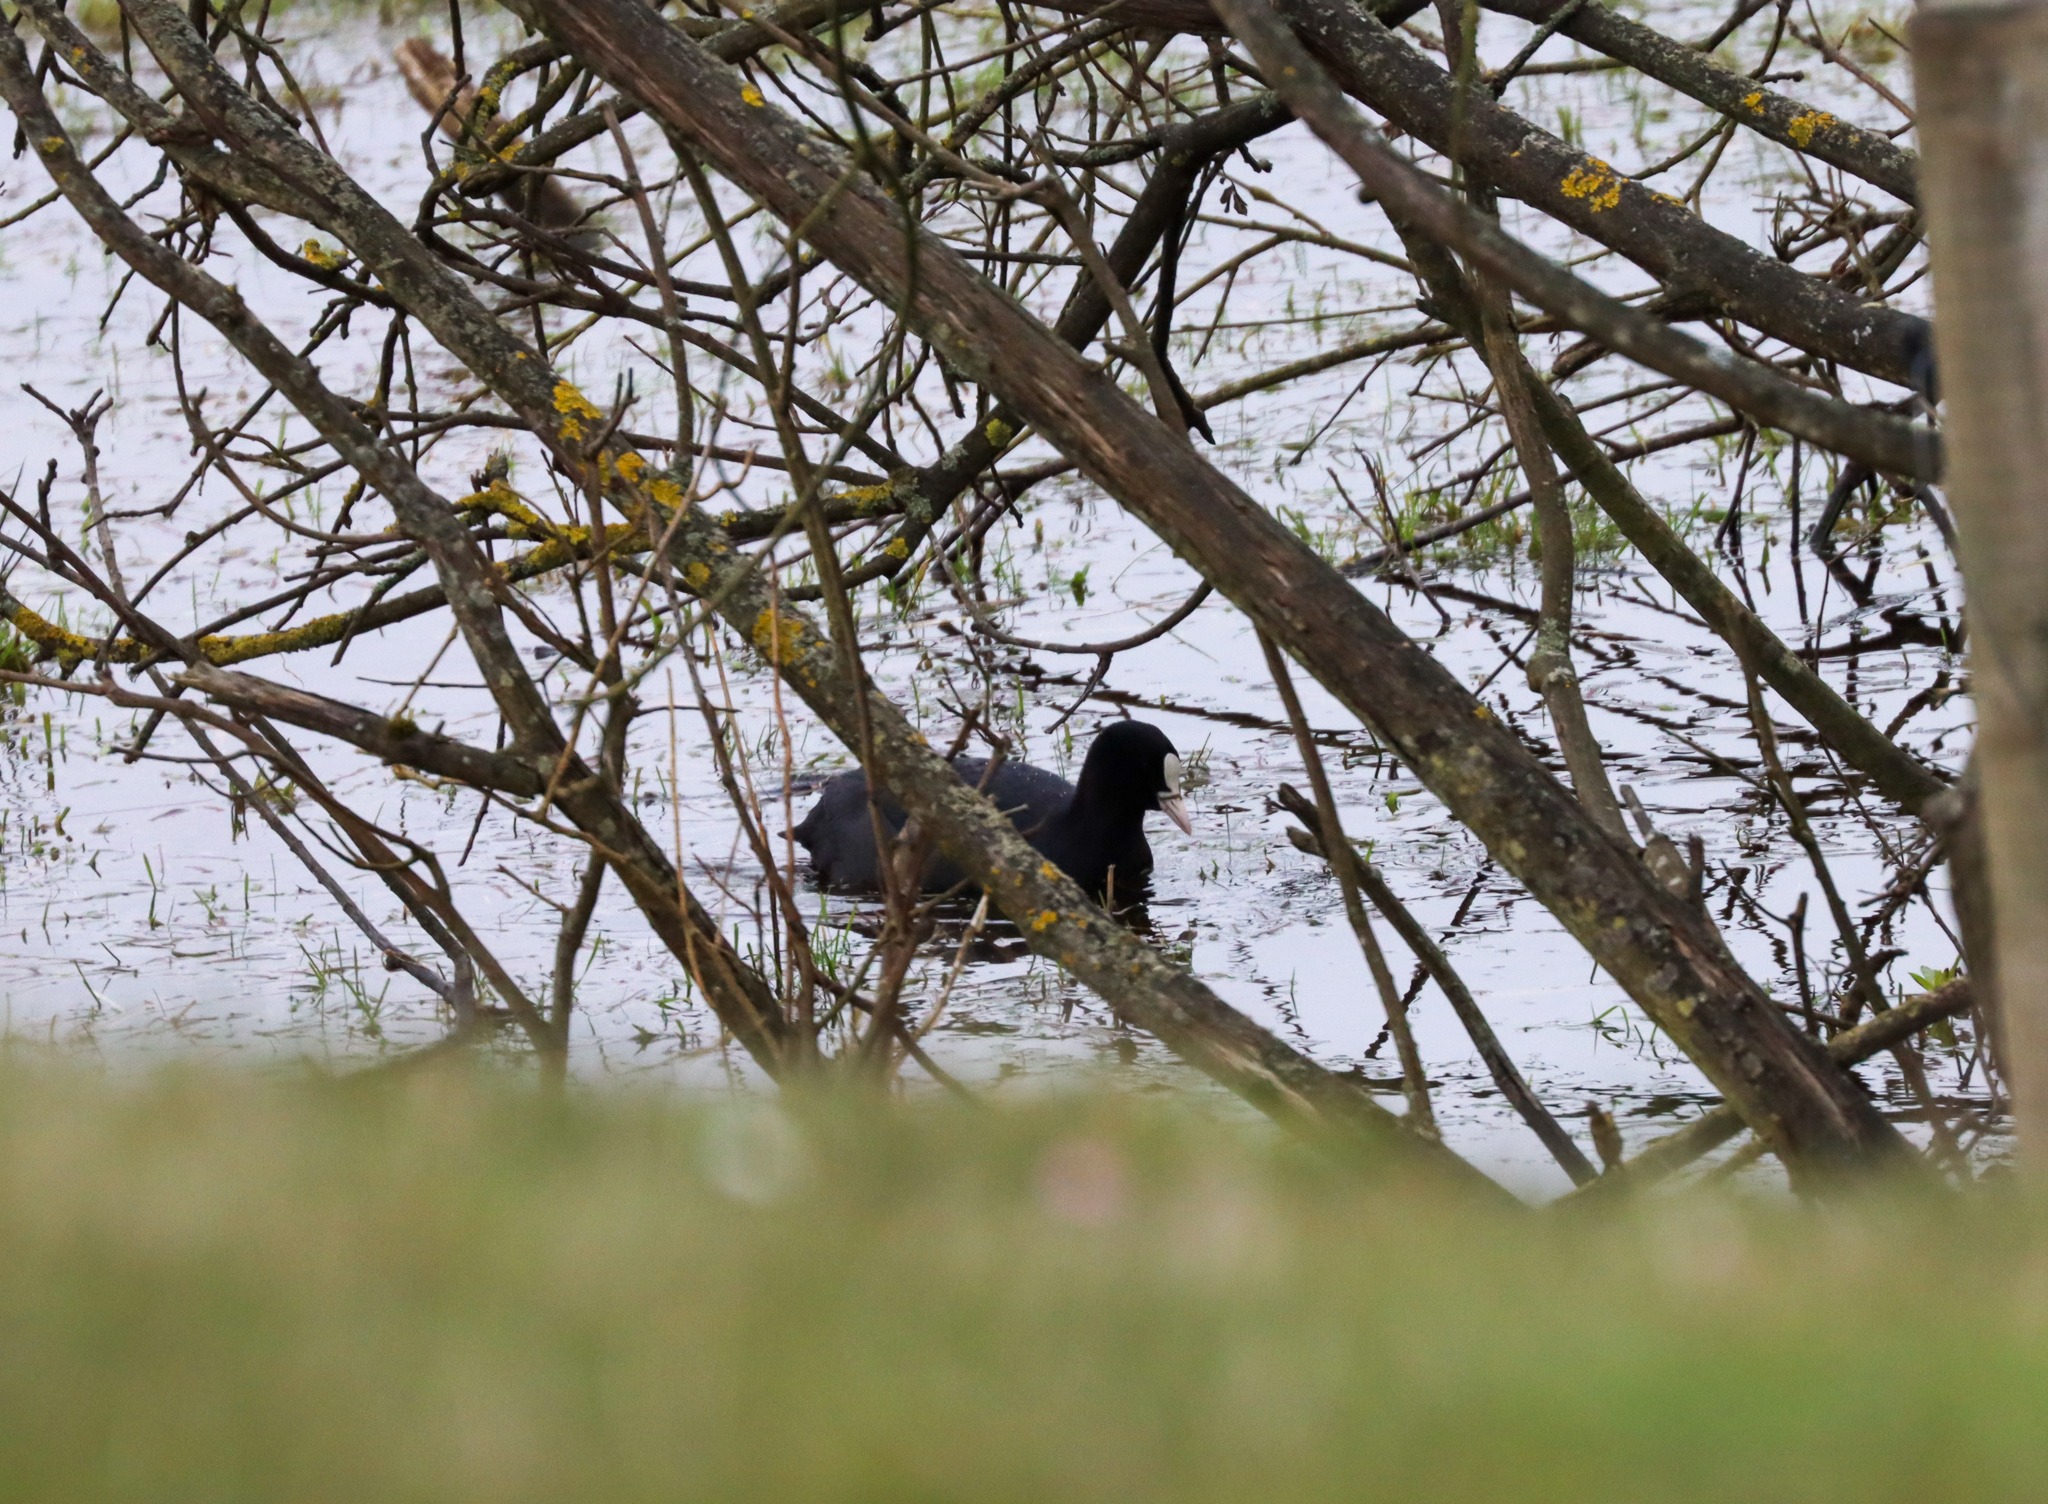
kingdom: Animalia
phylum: Chordata
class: Aves
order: Gruiformes
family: Rallidae
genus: Fulica
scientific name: Fulica atra
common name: Blishøne
